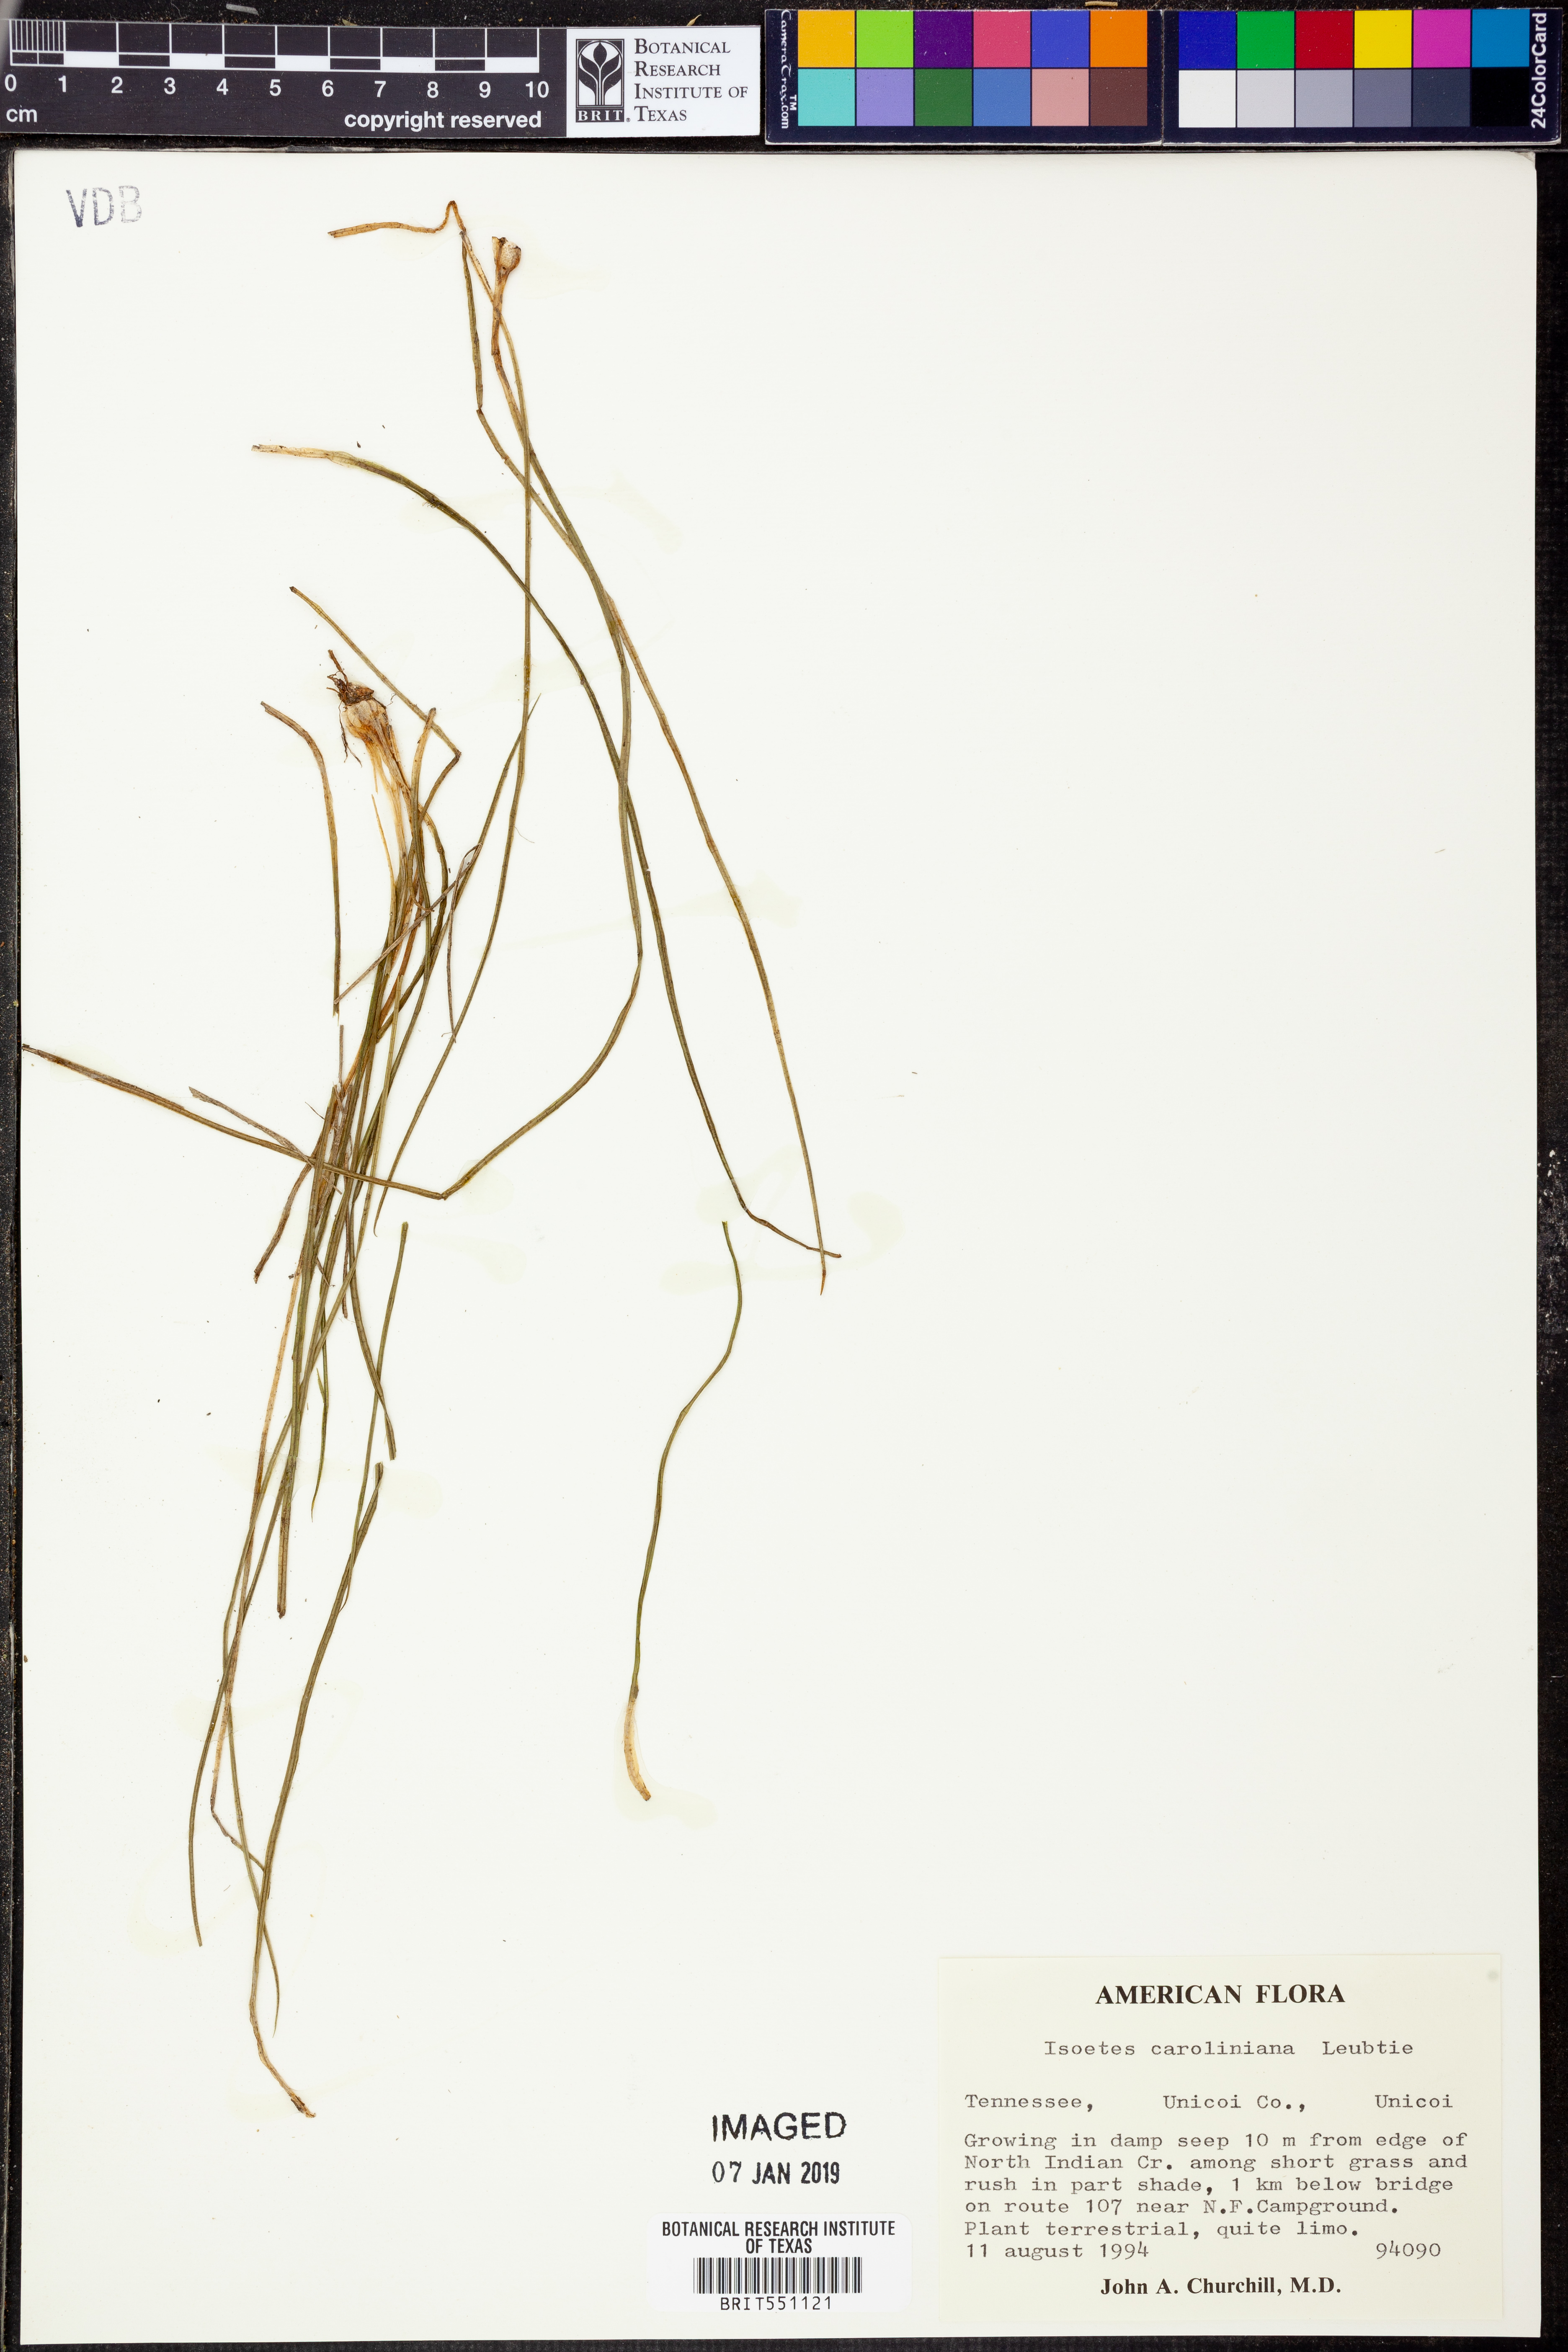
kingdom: Plantae
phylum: Tracheophyta
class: Lycopodiopsida
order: Isoetales
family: Isoetaceae
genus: Isoetes
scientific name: Isoetes caroliniana
